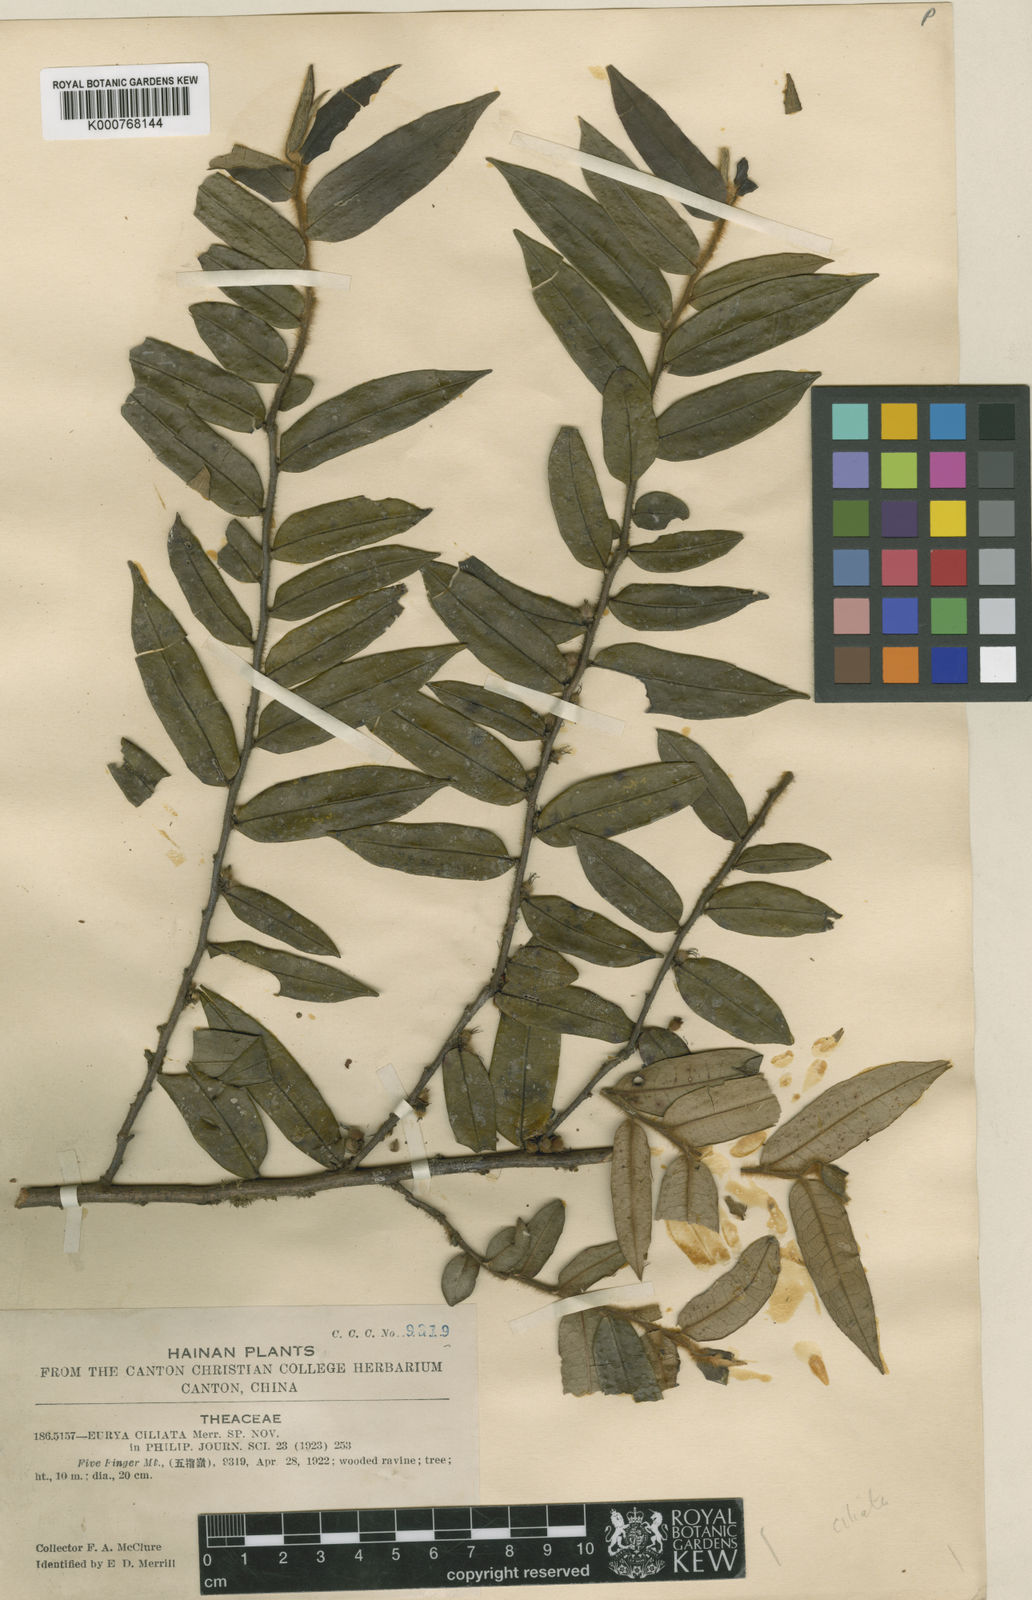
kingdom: Plantae
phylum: Tracheophyta
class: Magnoliopsida
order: Ericales
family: Pentaphylacaceae
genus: Eurya
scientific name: Eurya ciliata
